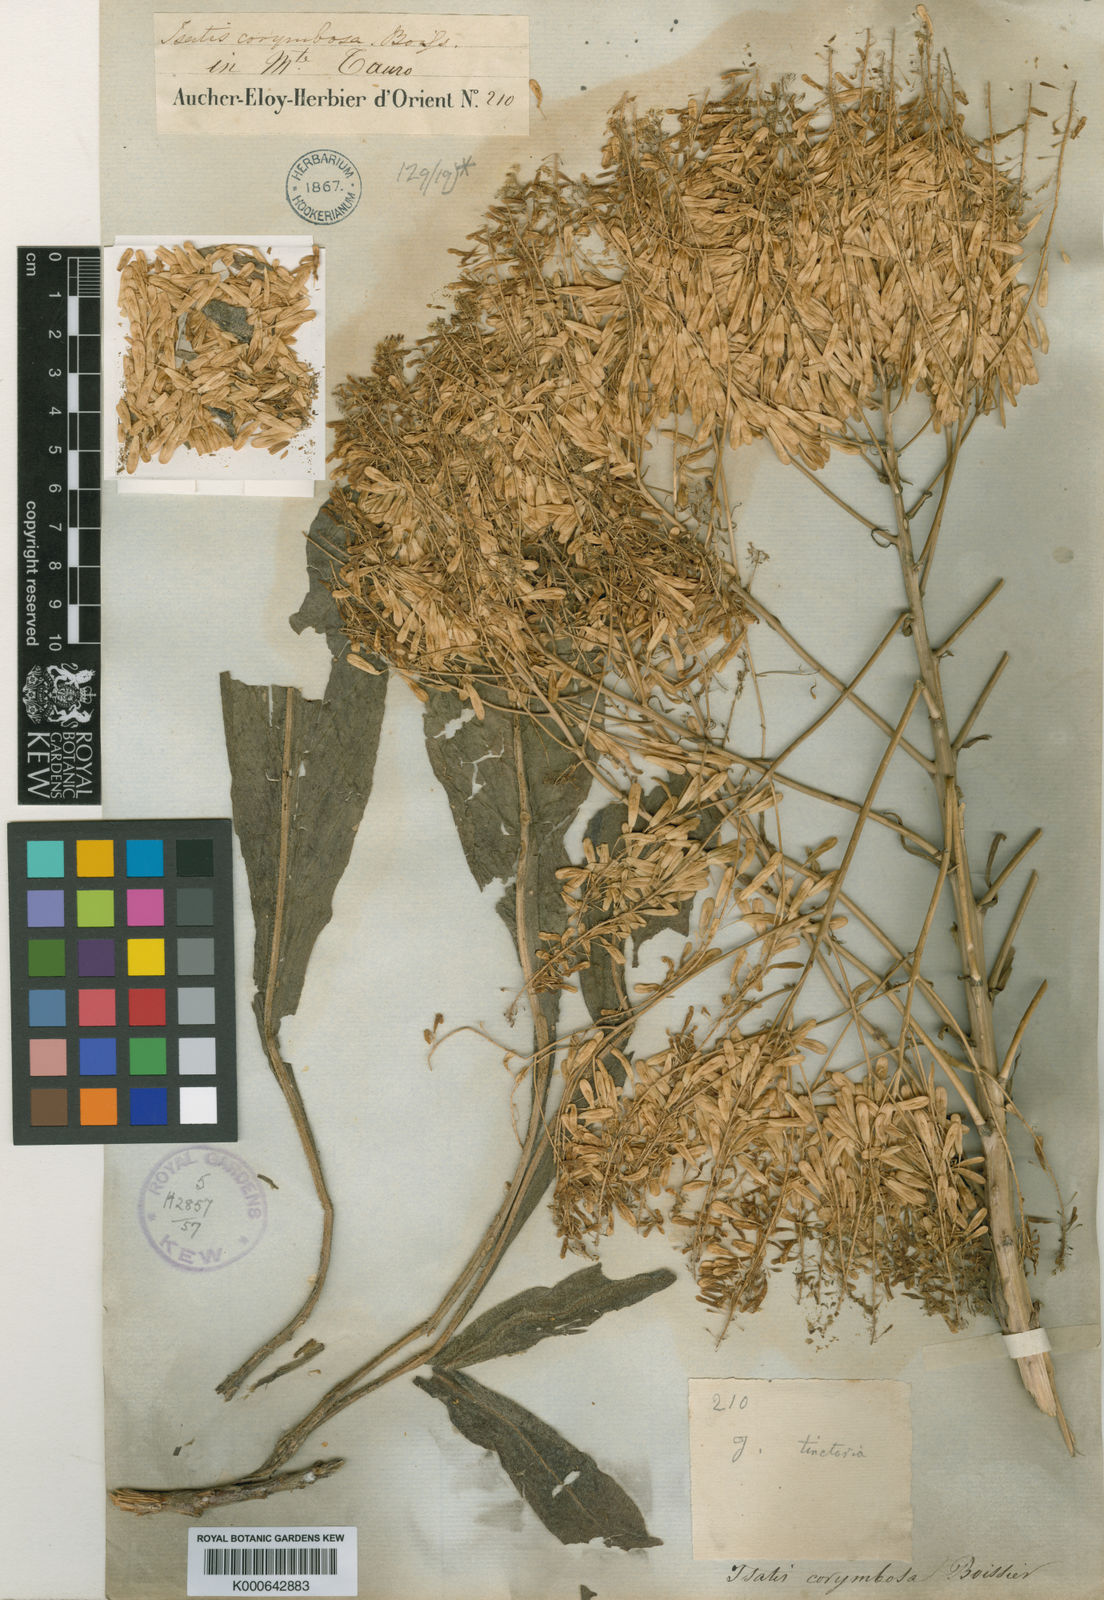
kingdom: Plantae
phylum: Tracheophyta
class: Magnoliopsida
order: Brassicales
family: Brassicaceae
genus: Isatis
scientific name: Isatis tinctoria
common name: Woad
